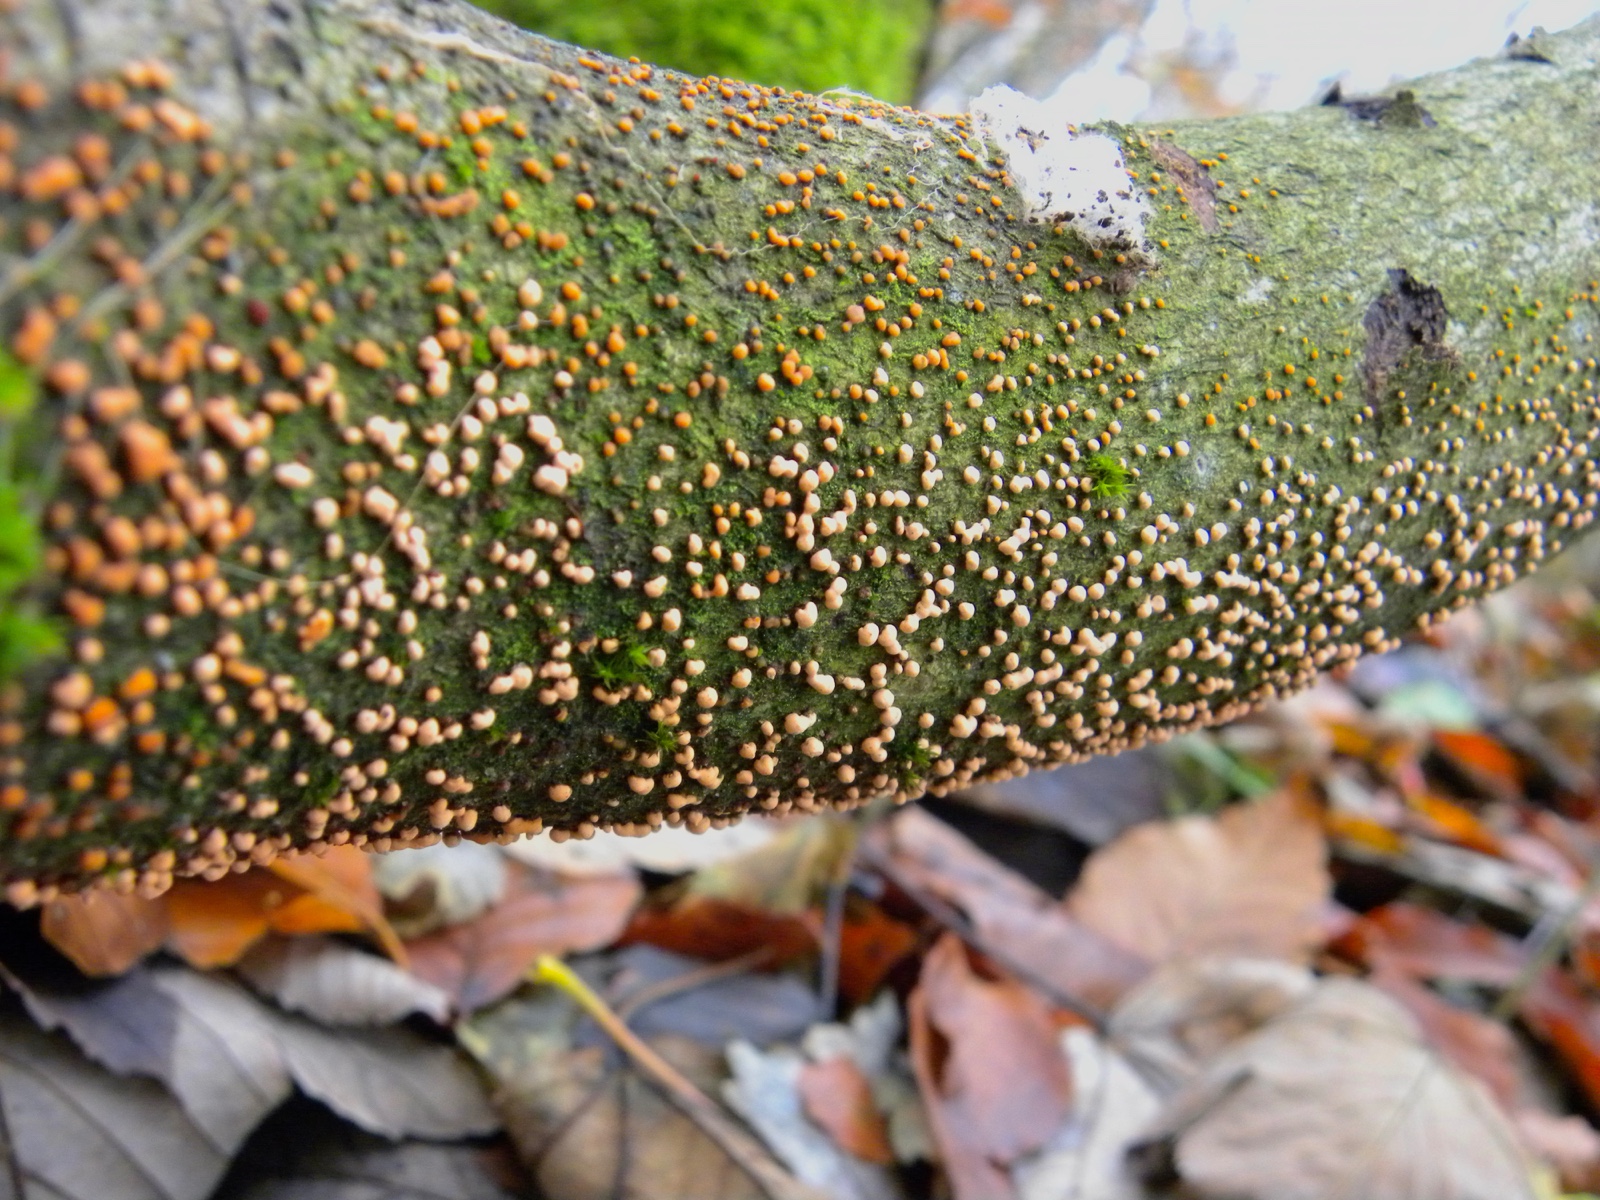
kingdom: Fungi
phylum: Ascomycota
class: Sordariomycetes
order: Hypocreales
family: Nectriaceae
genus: Nectria
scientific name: Nectria cinnabarina
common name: almindelig cinnobersvamp
